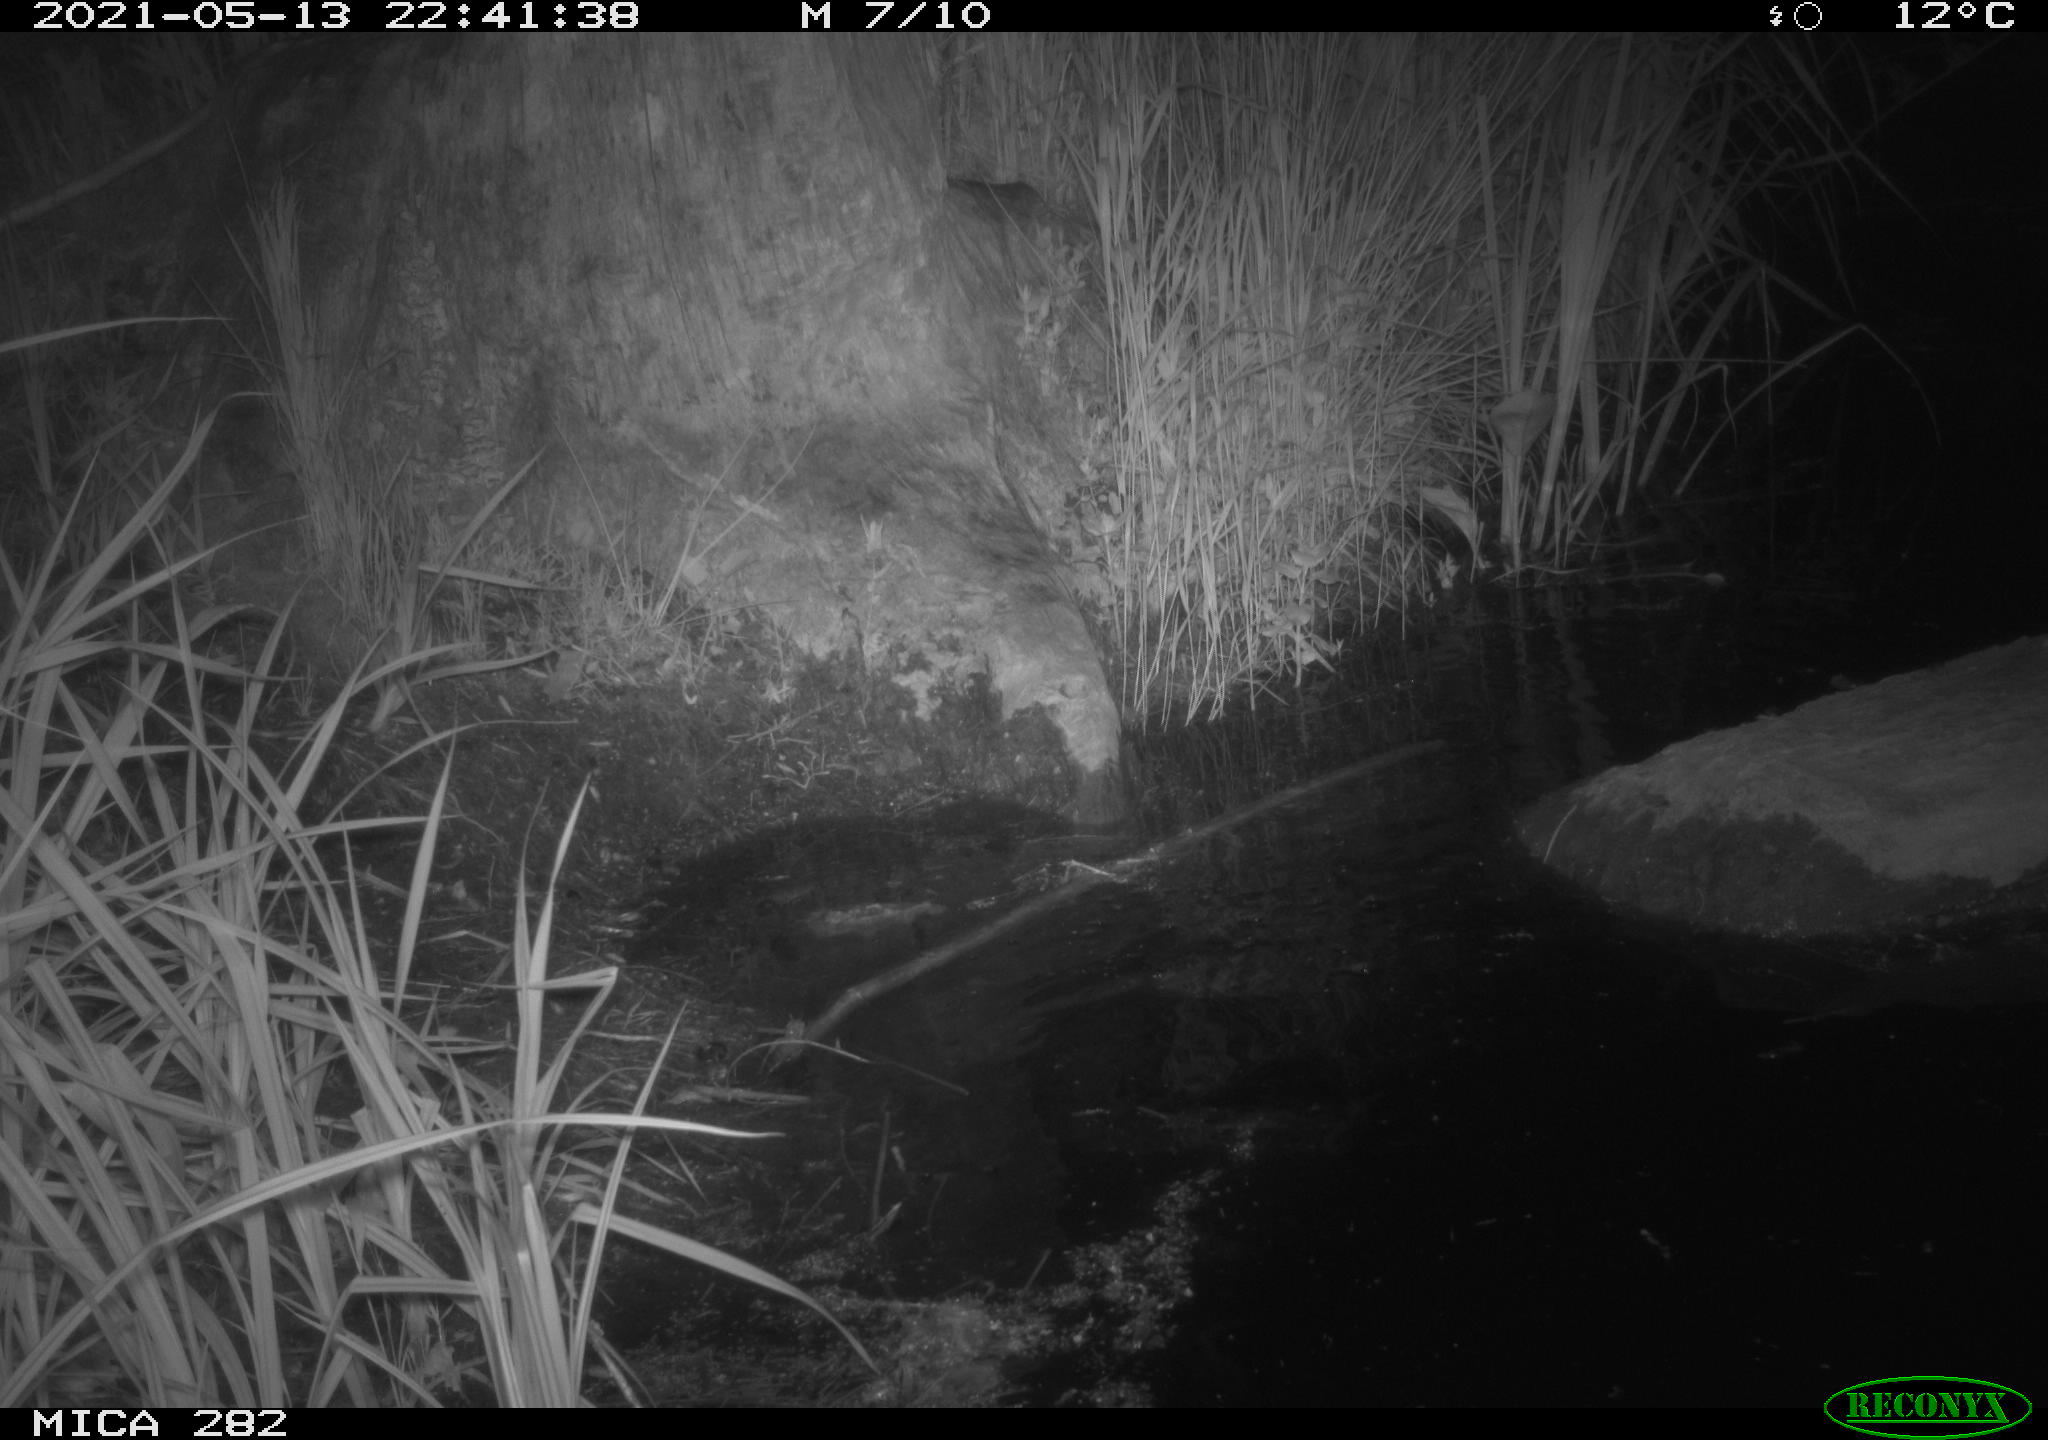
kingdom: Animalia
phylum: Chordata
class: Mammalia
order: Rodentia
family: Castoridae
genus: Castor
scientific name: Castor fiber
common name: Eurasian beaver
